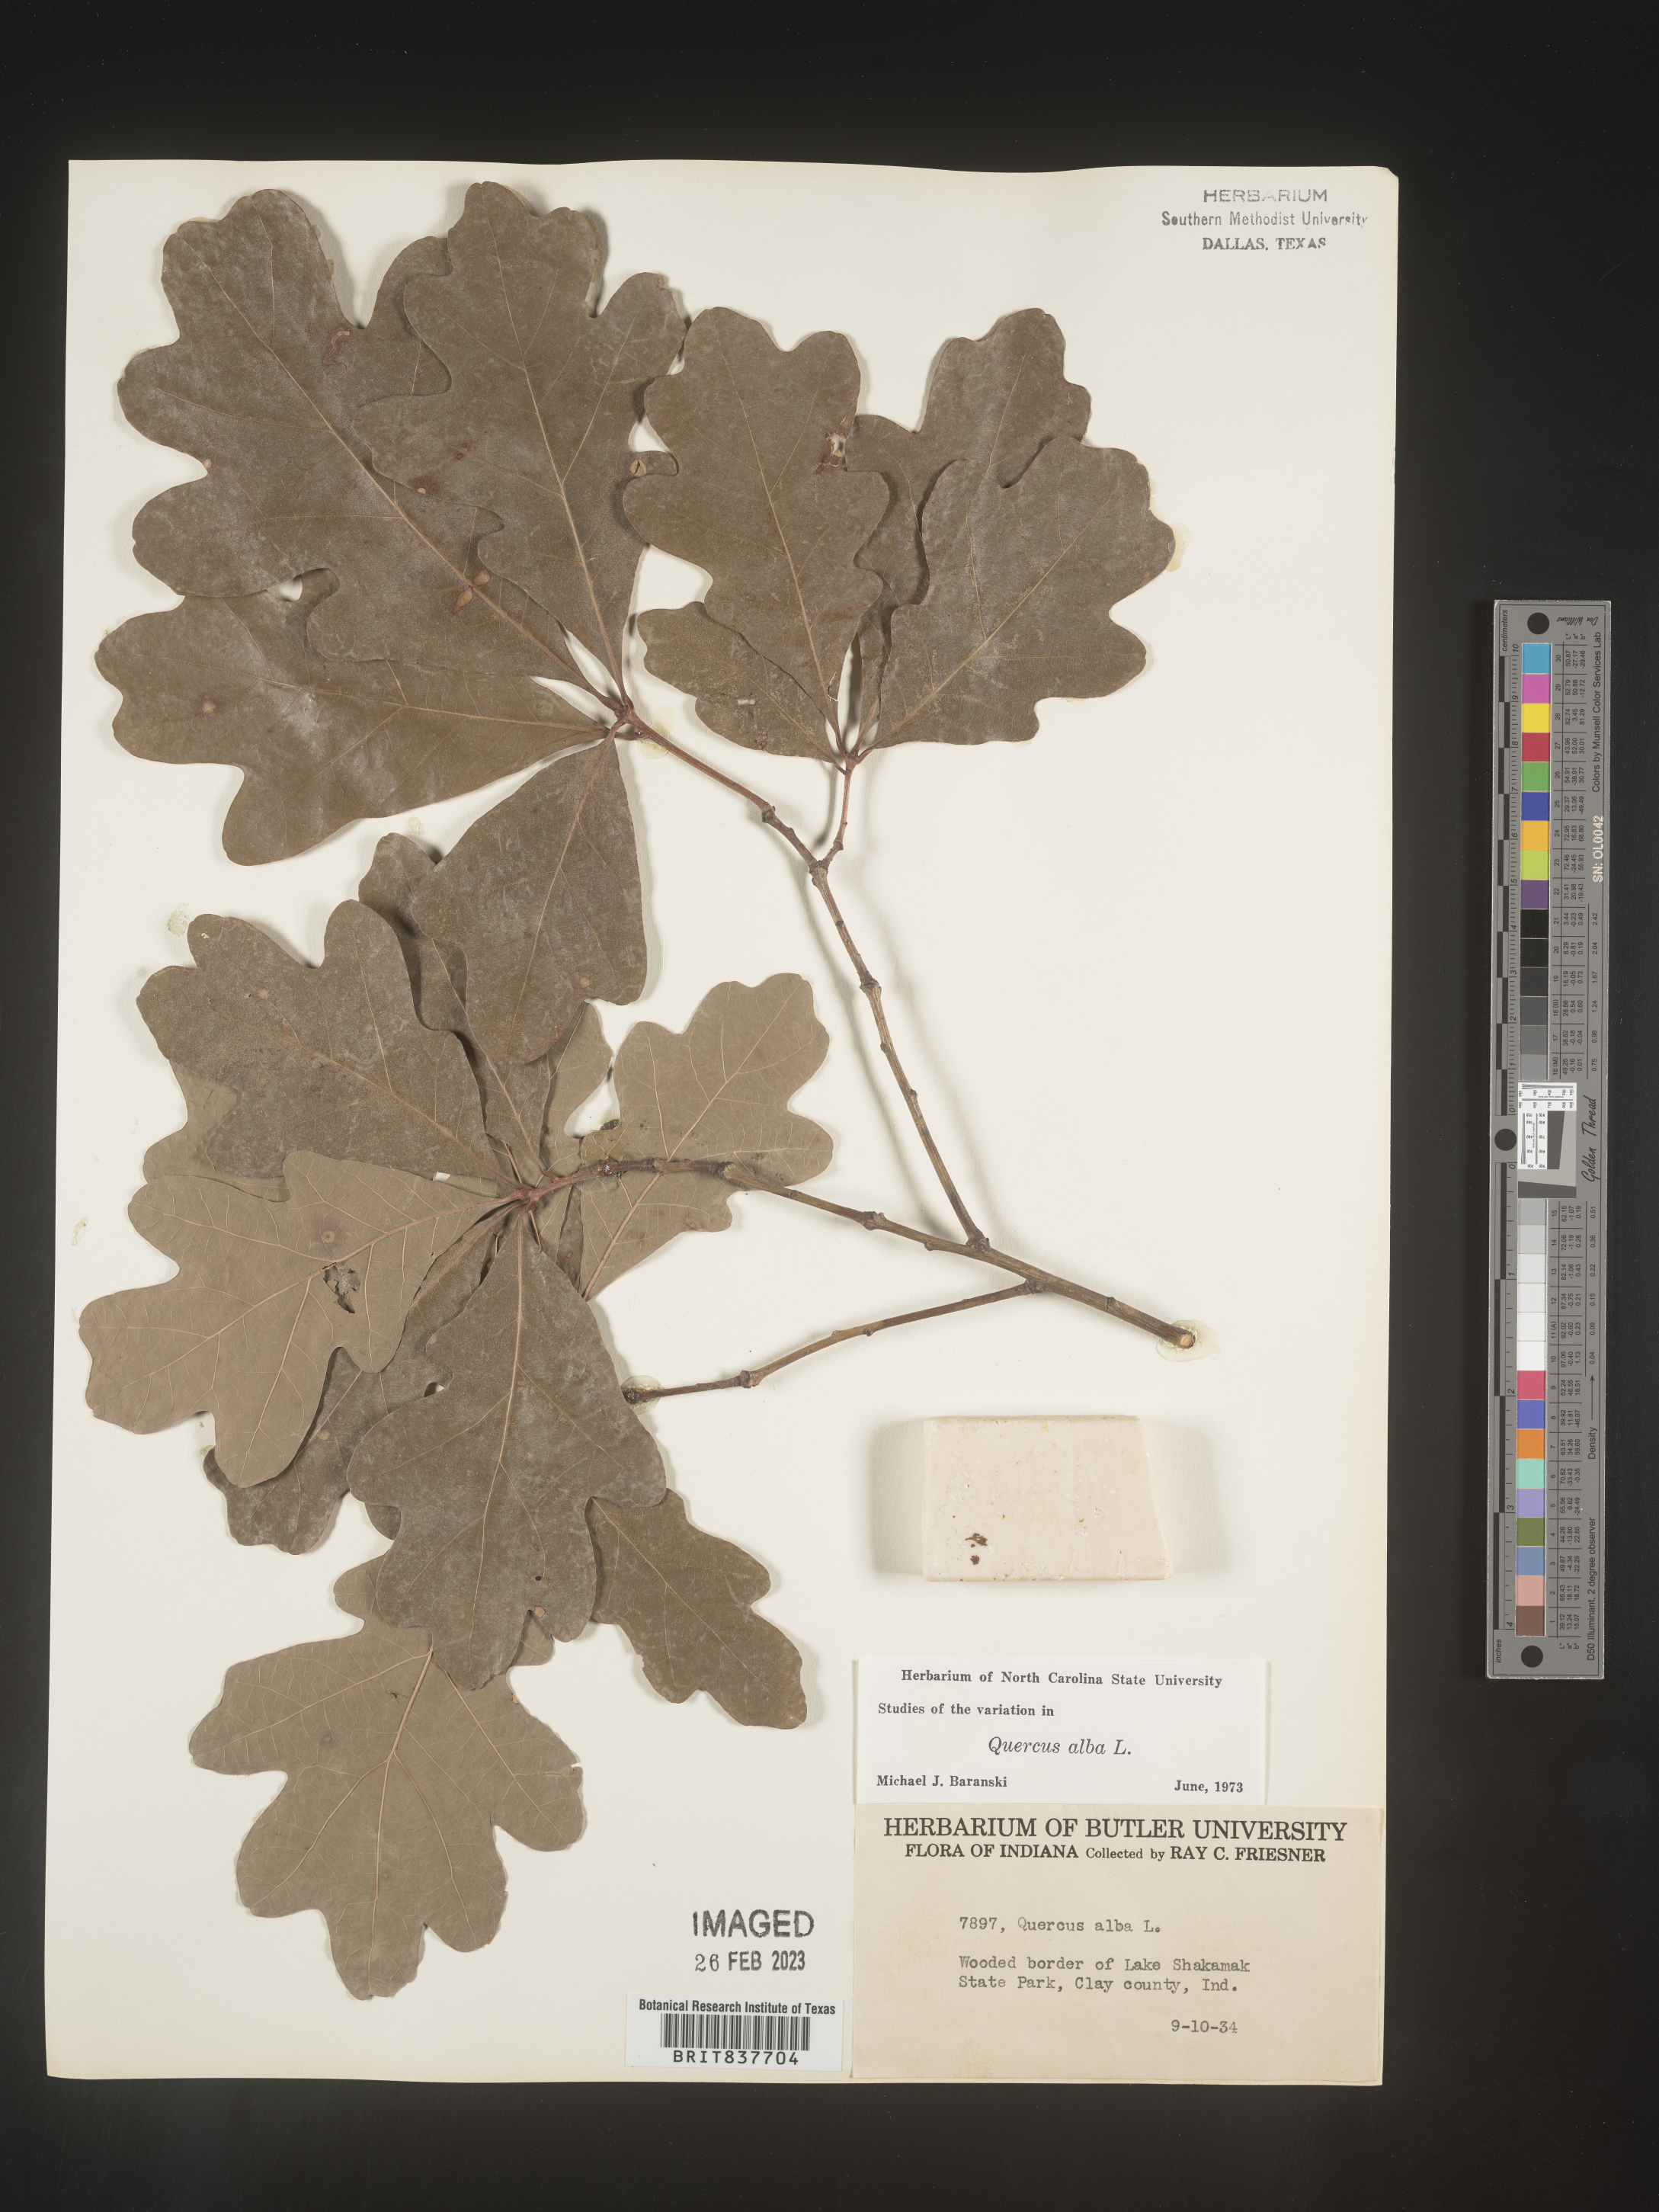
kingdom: Plantae
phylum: Tracheophyta
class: Magnoliopsida
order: Fagales
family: Fagaceae
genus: Quercus
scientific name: Quercus alba
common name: White oak
